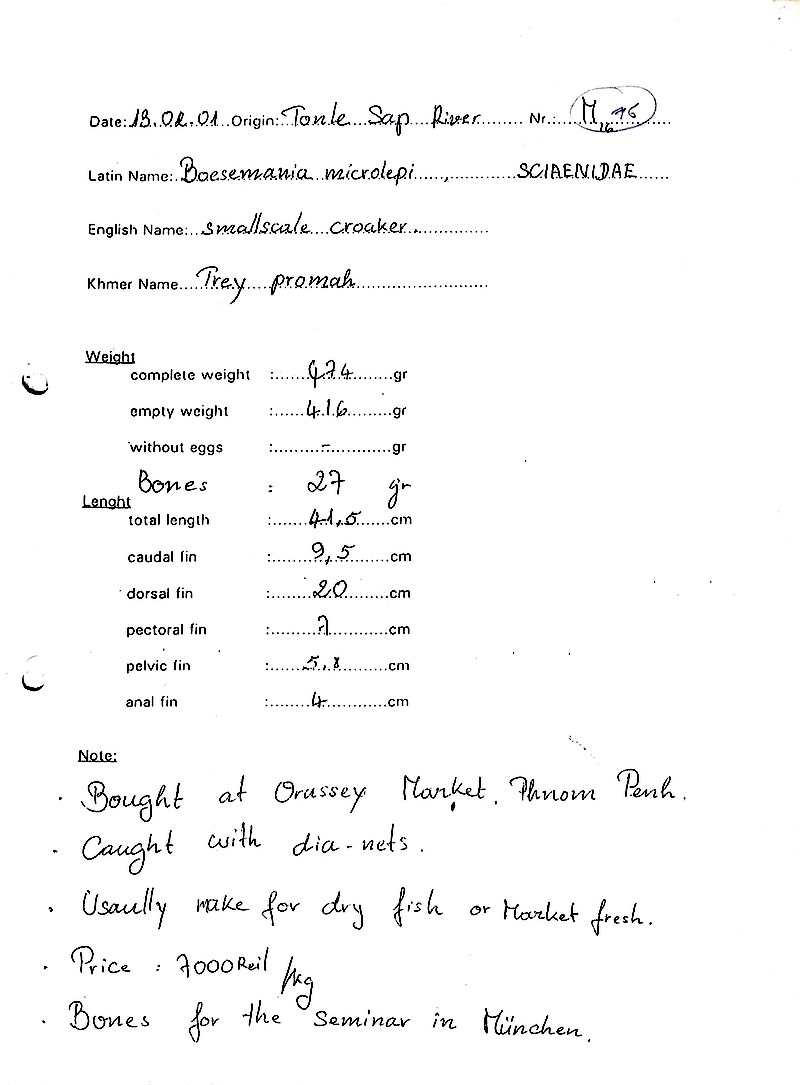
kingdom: Animalia
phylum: Chordata
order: Perciformes
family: Sciaenidae
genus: Boesemania
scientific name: Boesemania microlepis
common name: Boeseman croaker
